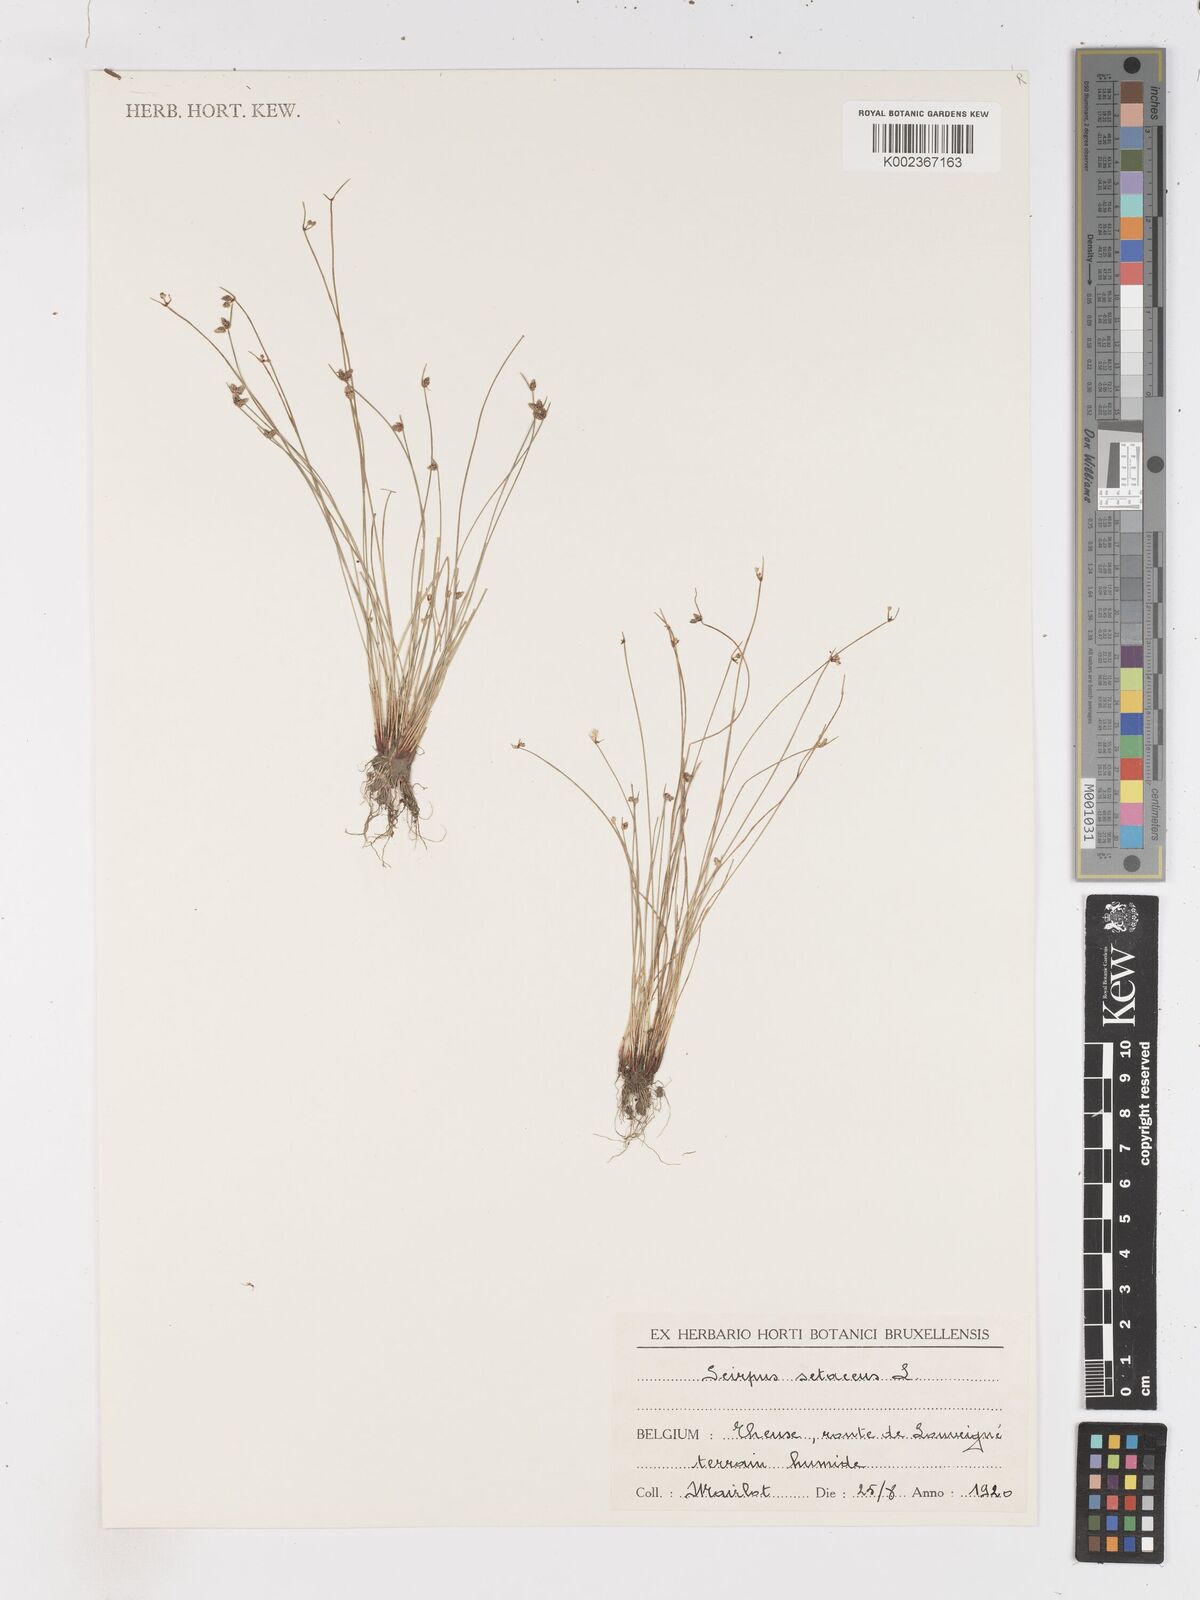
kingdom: Plantae
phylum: Tracheophyta
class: Liliopsida
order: Poales
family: Cyperaceae
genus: Isolepis
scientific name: Isolepis setacea
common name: Bristle club-rush
